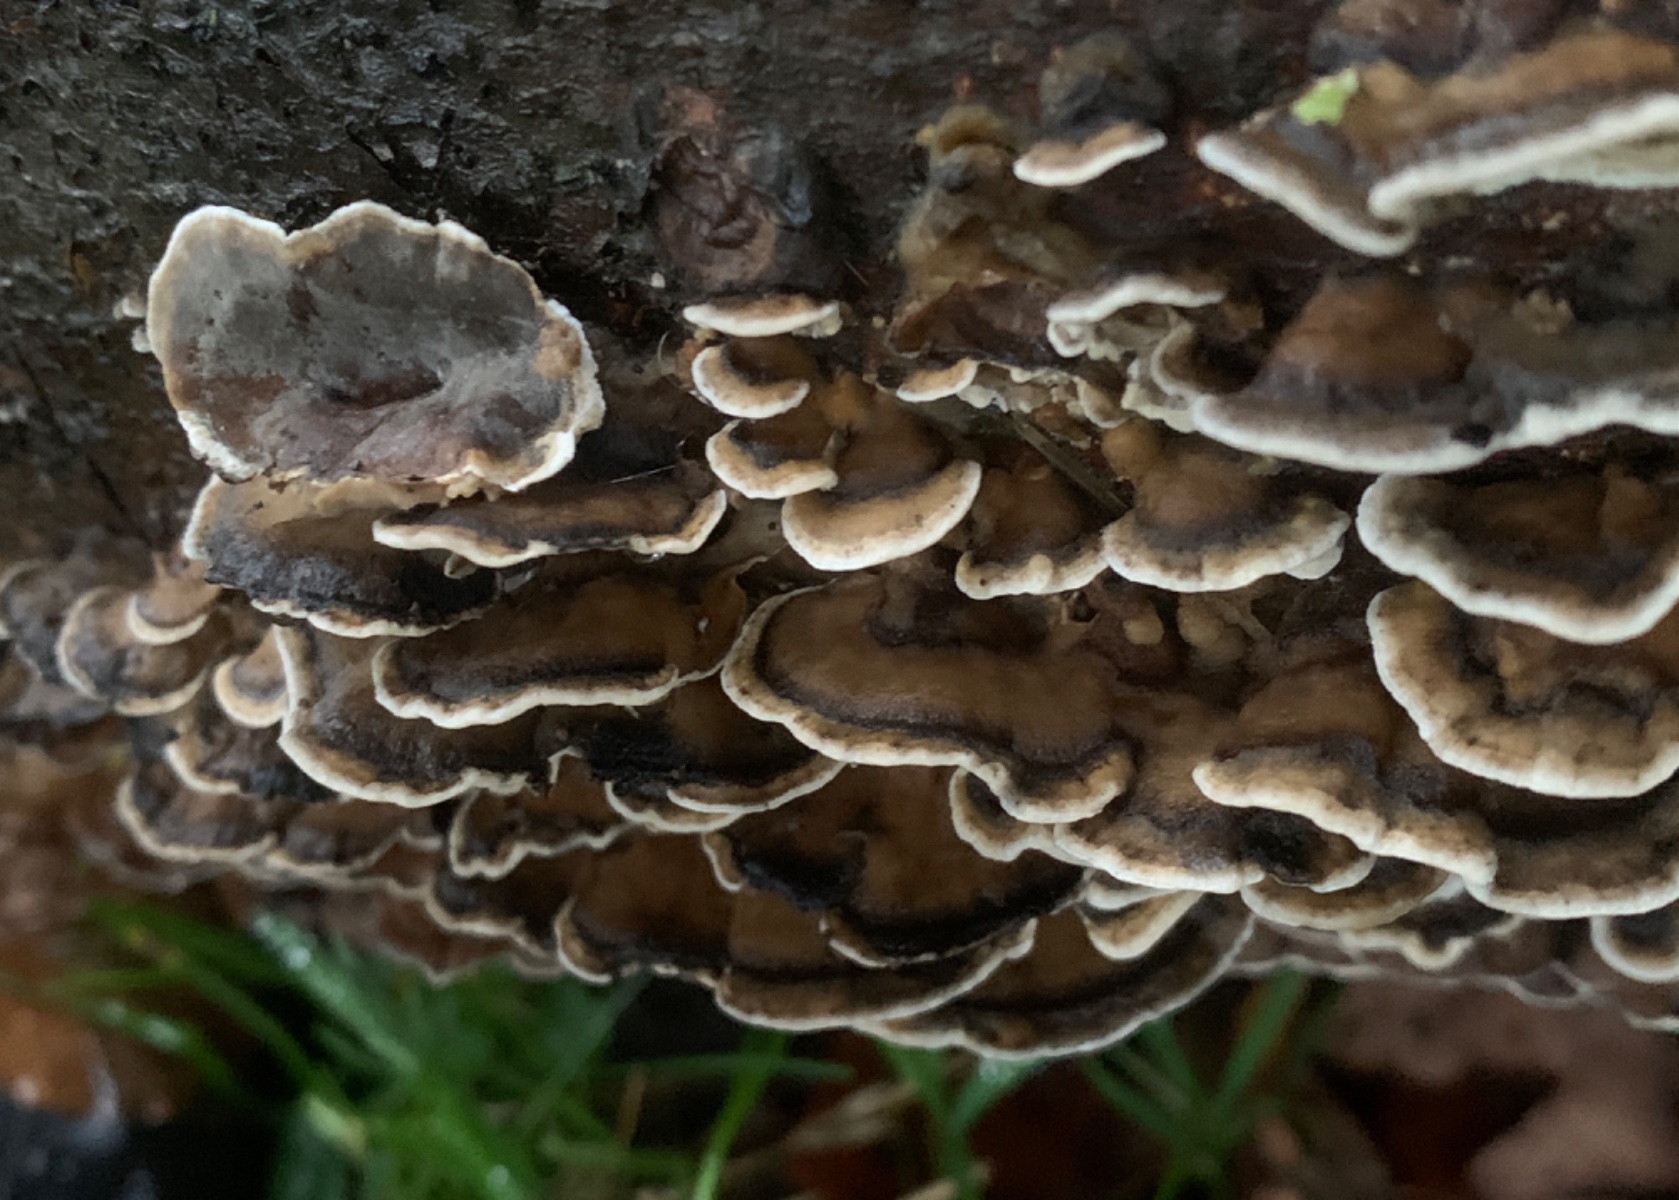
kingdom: Fungi
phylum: Basidiomycota
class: Agaricomycetes
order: Polyporales
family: Phanerochaetaceae
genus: Bjerkandera
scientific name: Bjerkandera adusta
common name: sveden sodporesvamp
